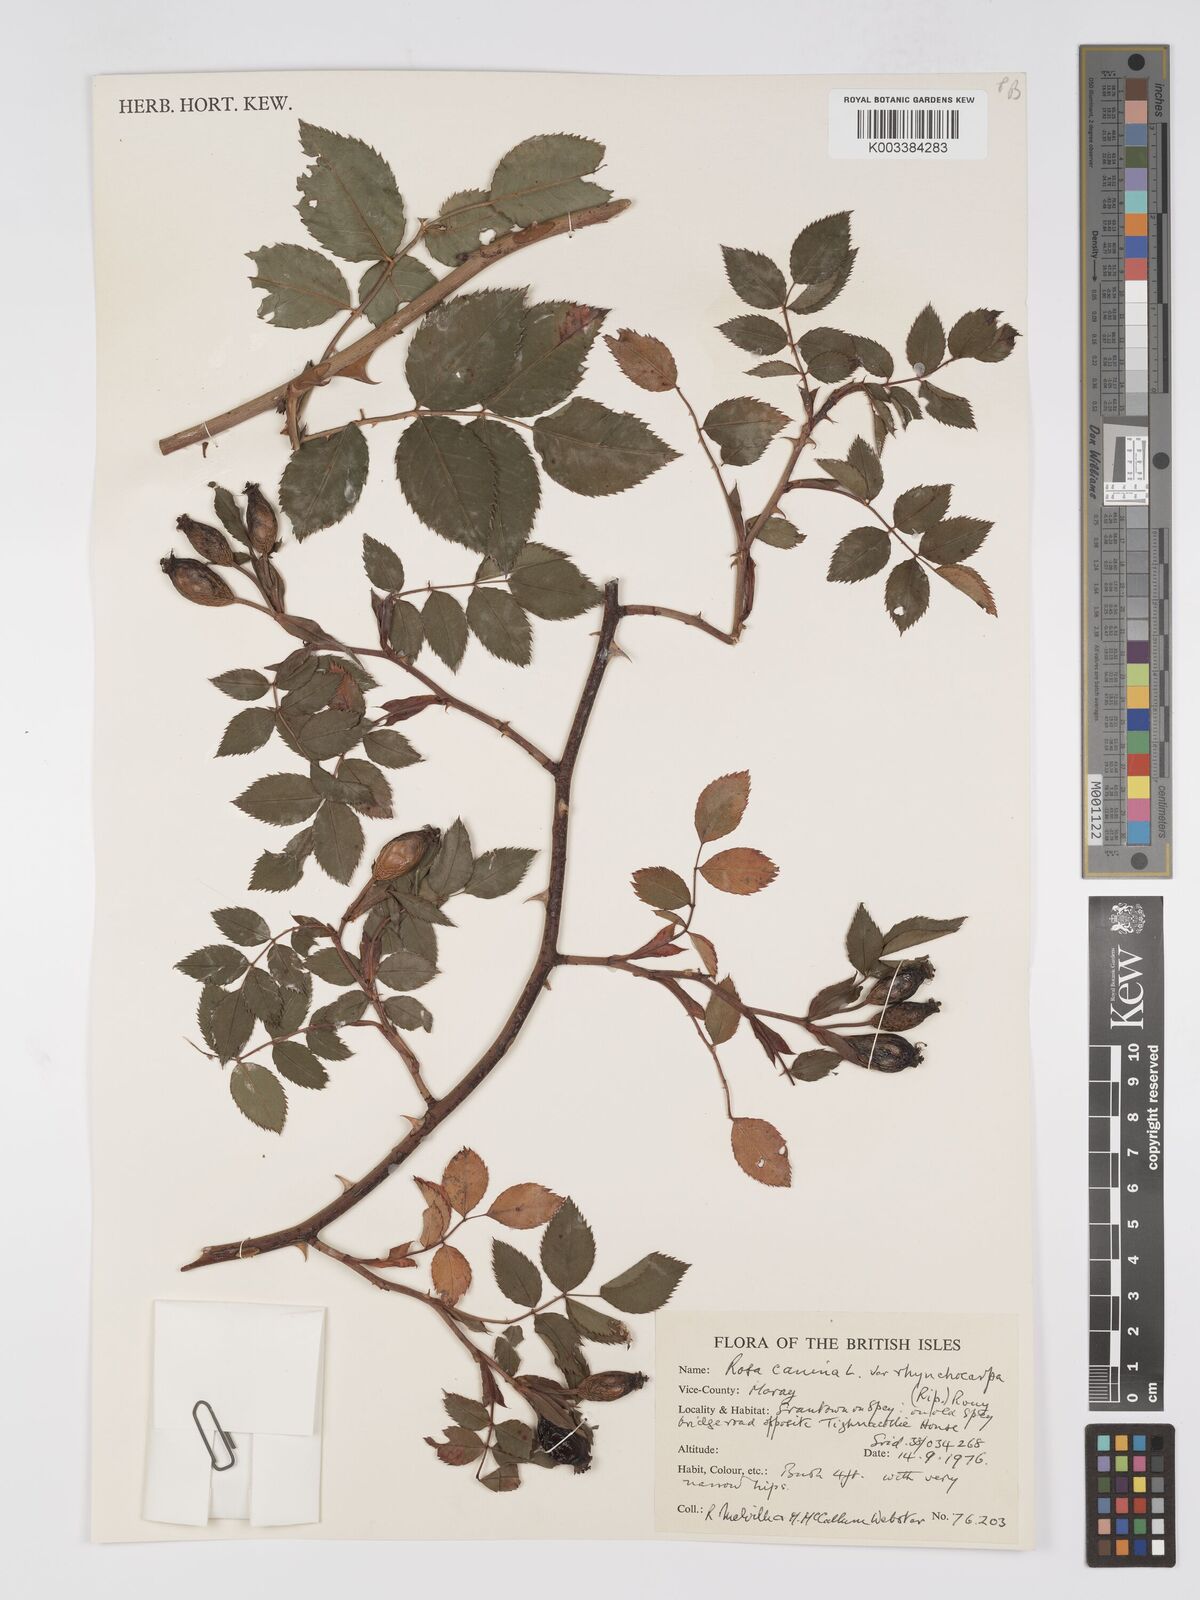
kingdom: Plantae
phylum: Tracheophyta
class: Magnoliopsida
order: Rosales
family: Rosaceae
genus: Rosa
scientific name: Rosa canina
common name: Dog rose
